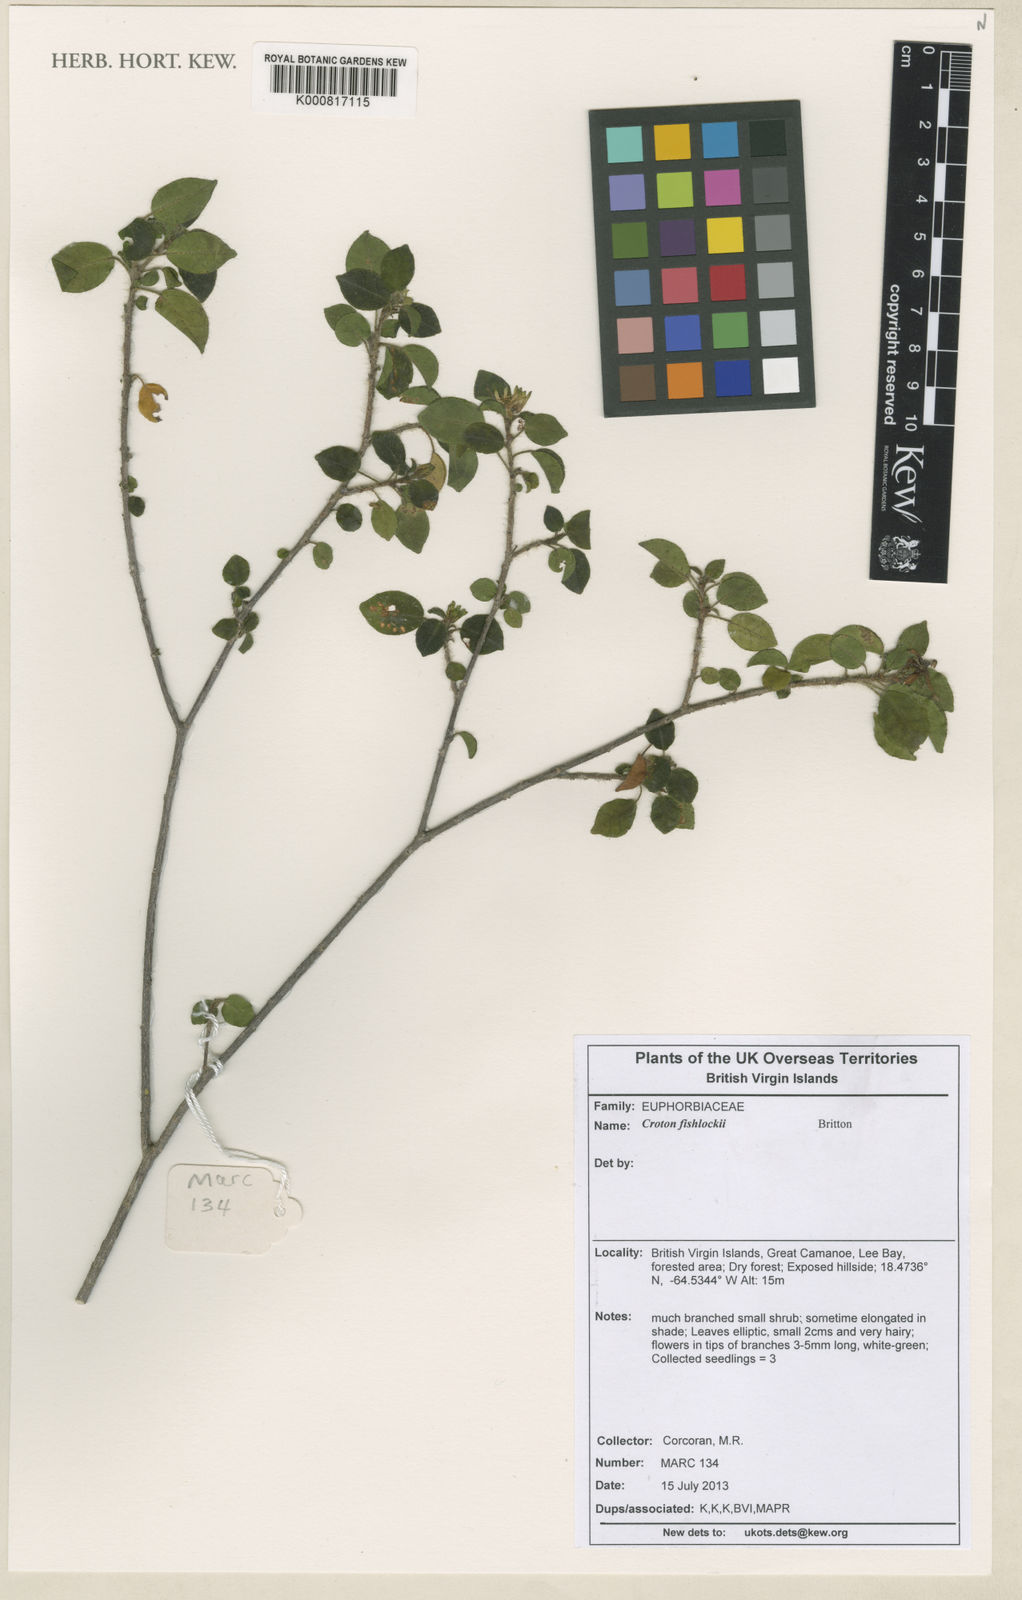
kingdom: Plantae
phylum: Tracheophyta
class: Magnoliopsida
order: Malpighiales
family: Euphorbiaceae
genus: Croton
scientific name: Croton fishlockii
